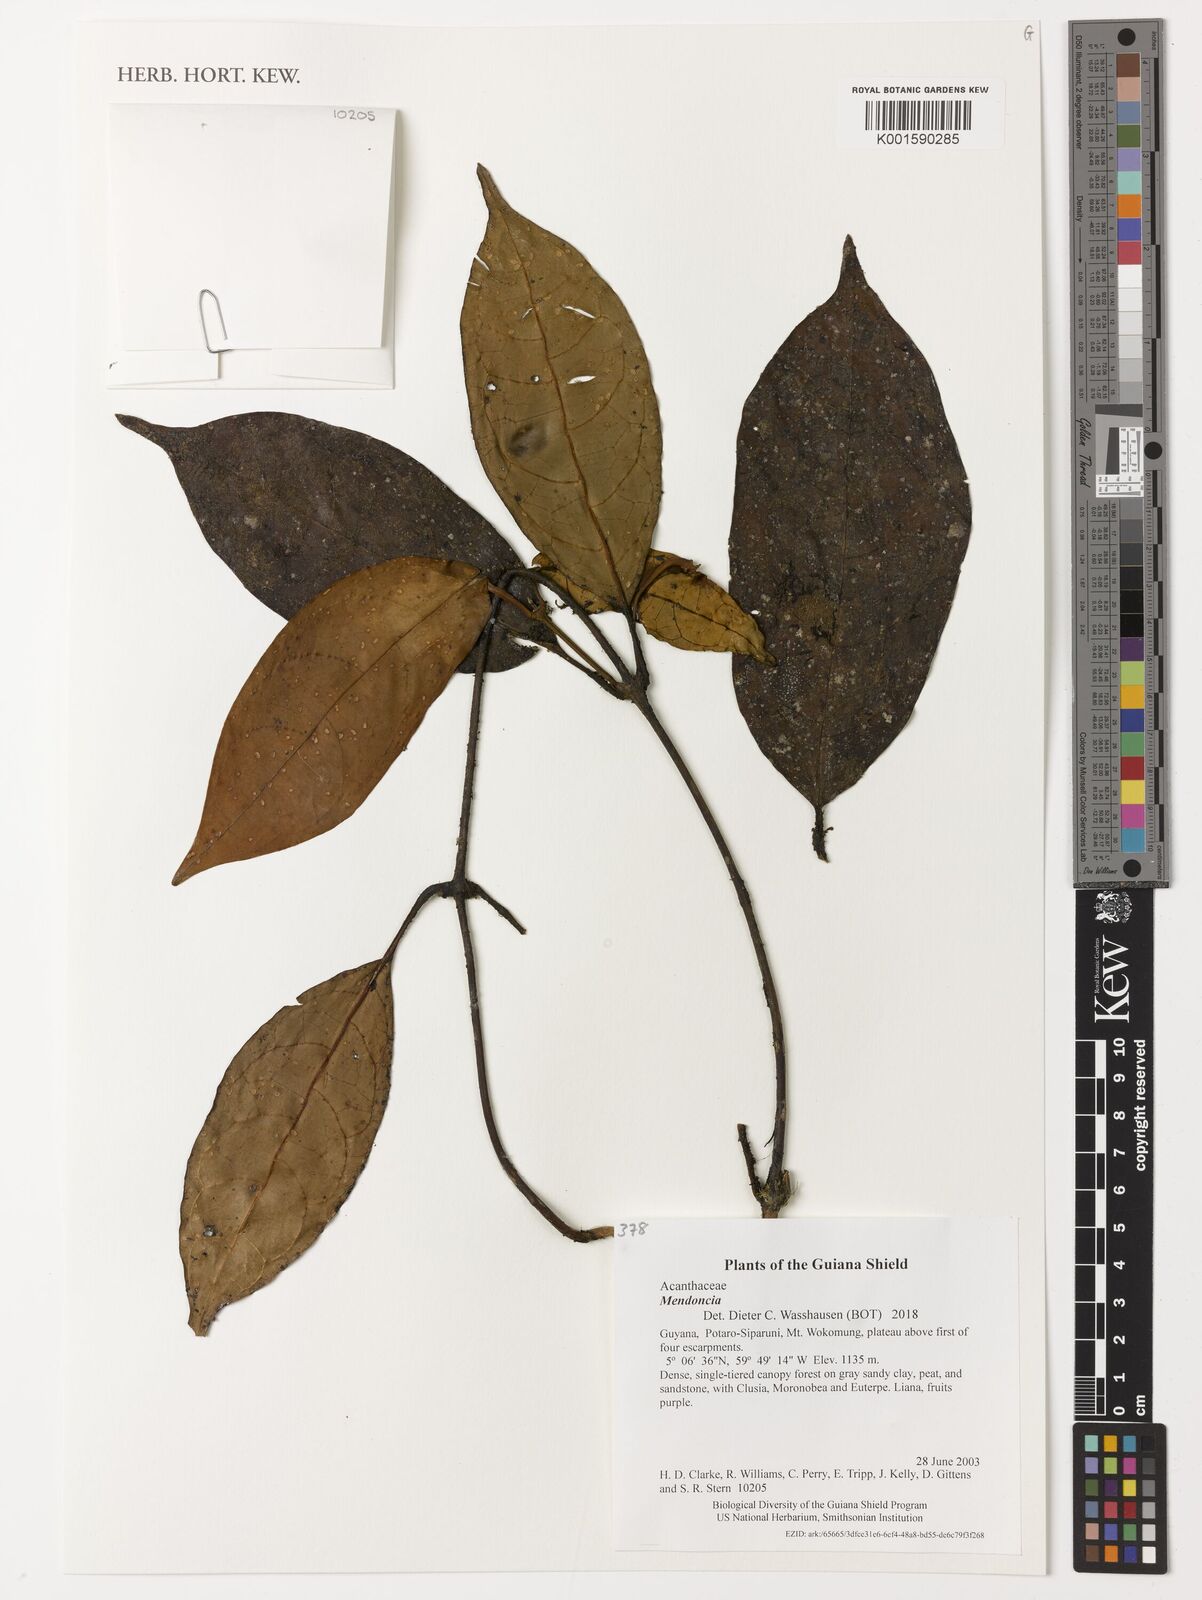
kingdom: Plantae
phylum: Tracheophyta
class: Magnoliopsida
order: Lamiales
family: Acanthaceae
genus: Mendoncia
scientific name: Mendoncia
